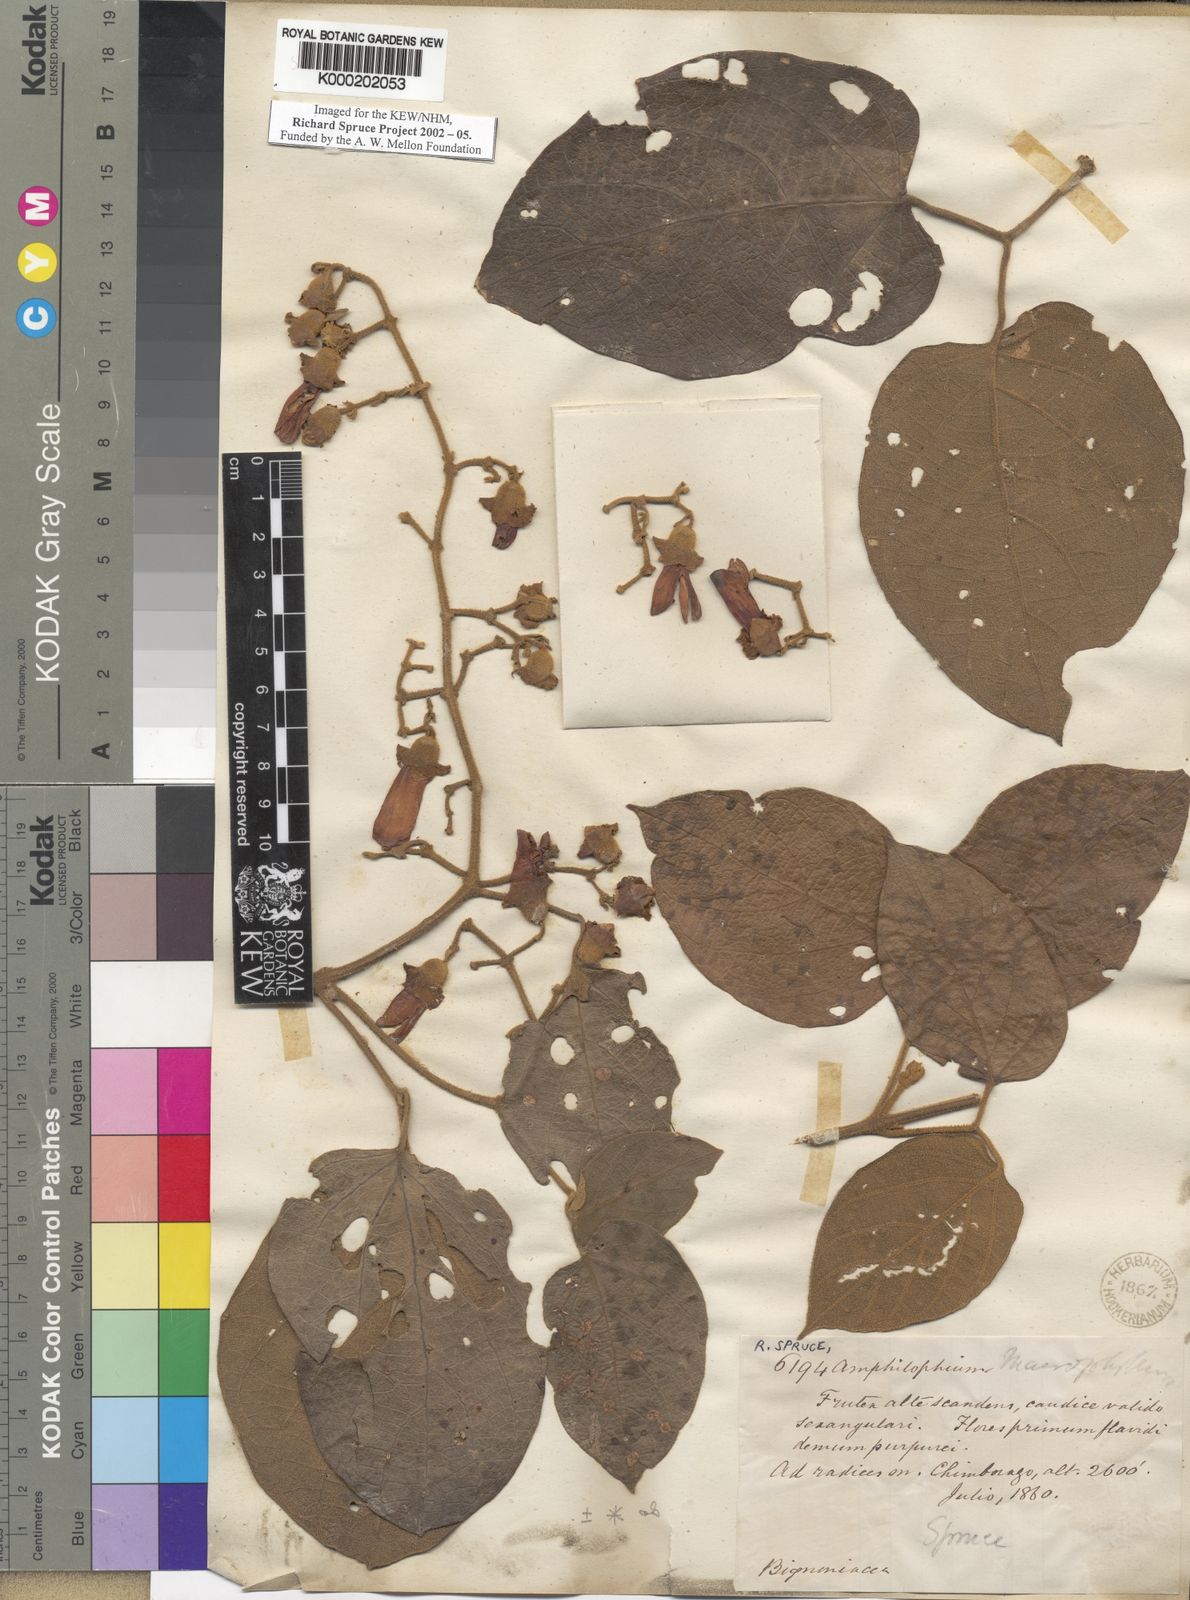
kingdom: Plantae
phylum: Tracheophyta
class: Magnoliopsida
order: Lamiales
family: Bignoniaceae
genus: Amphilophium
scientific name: Amphilophium paniculatum
